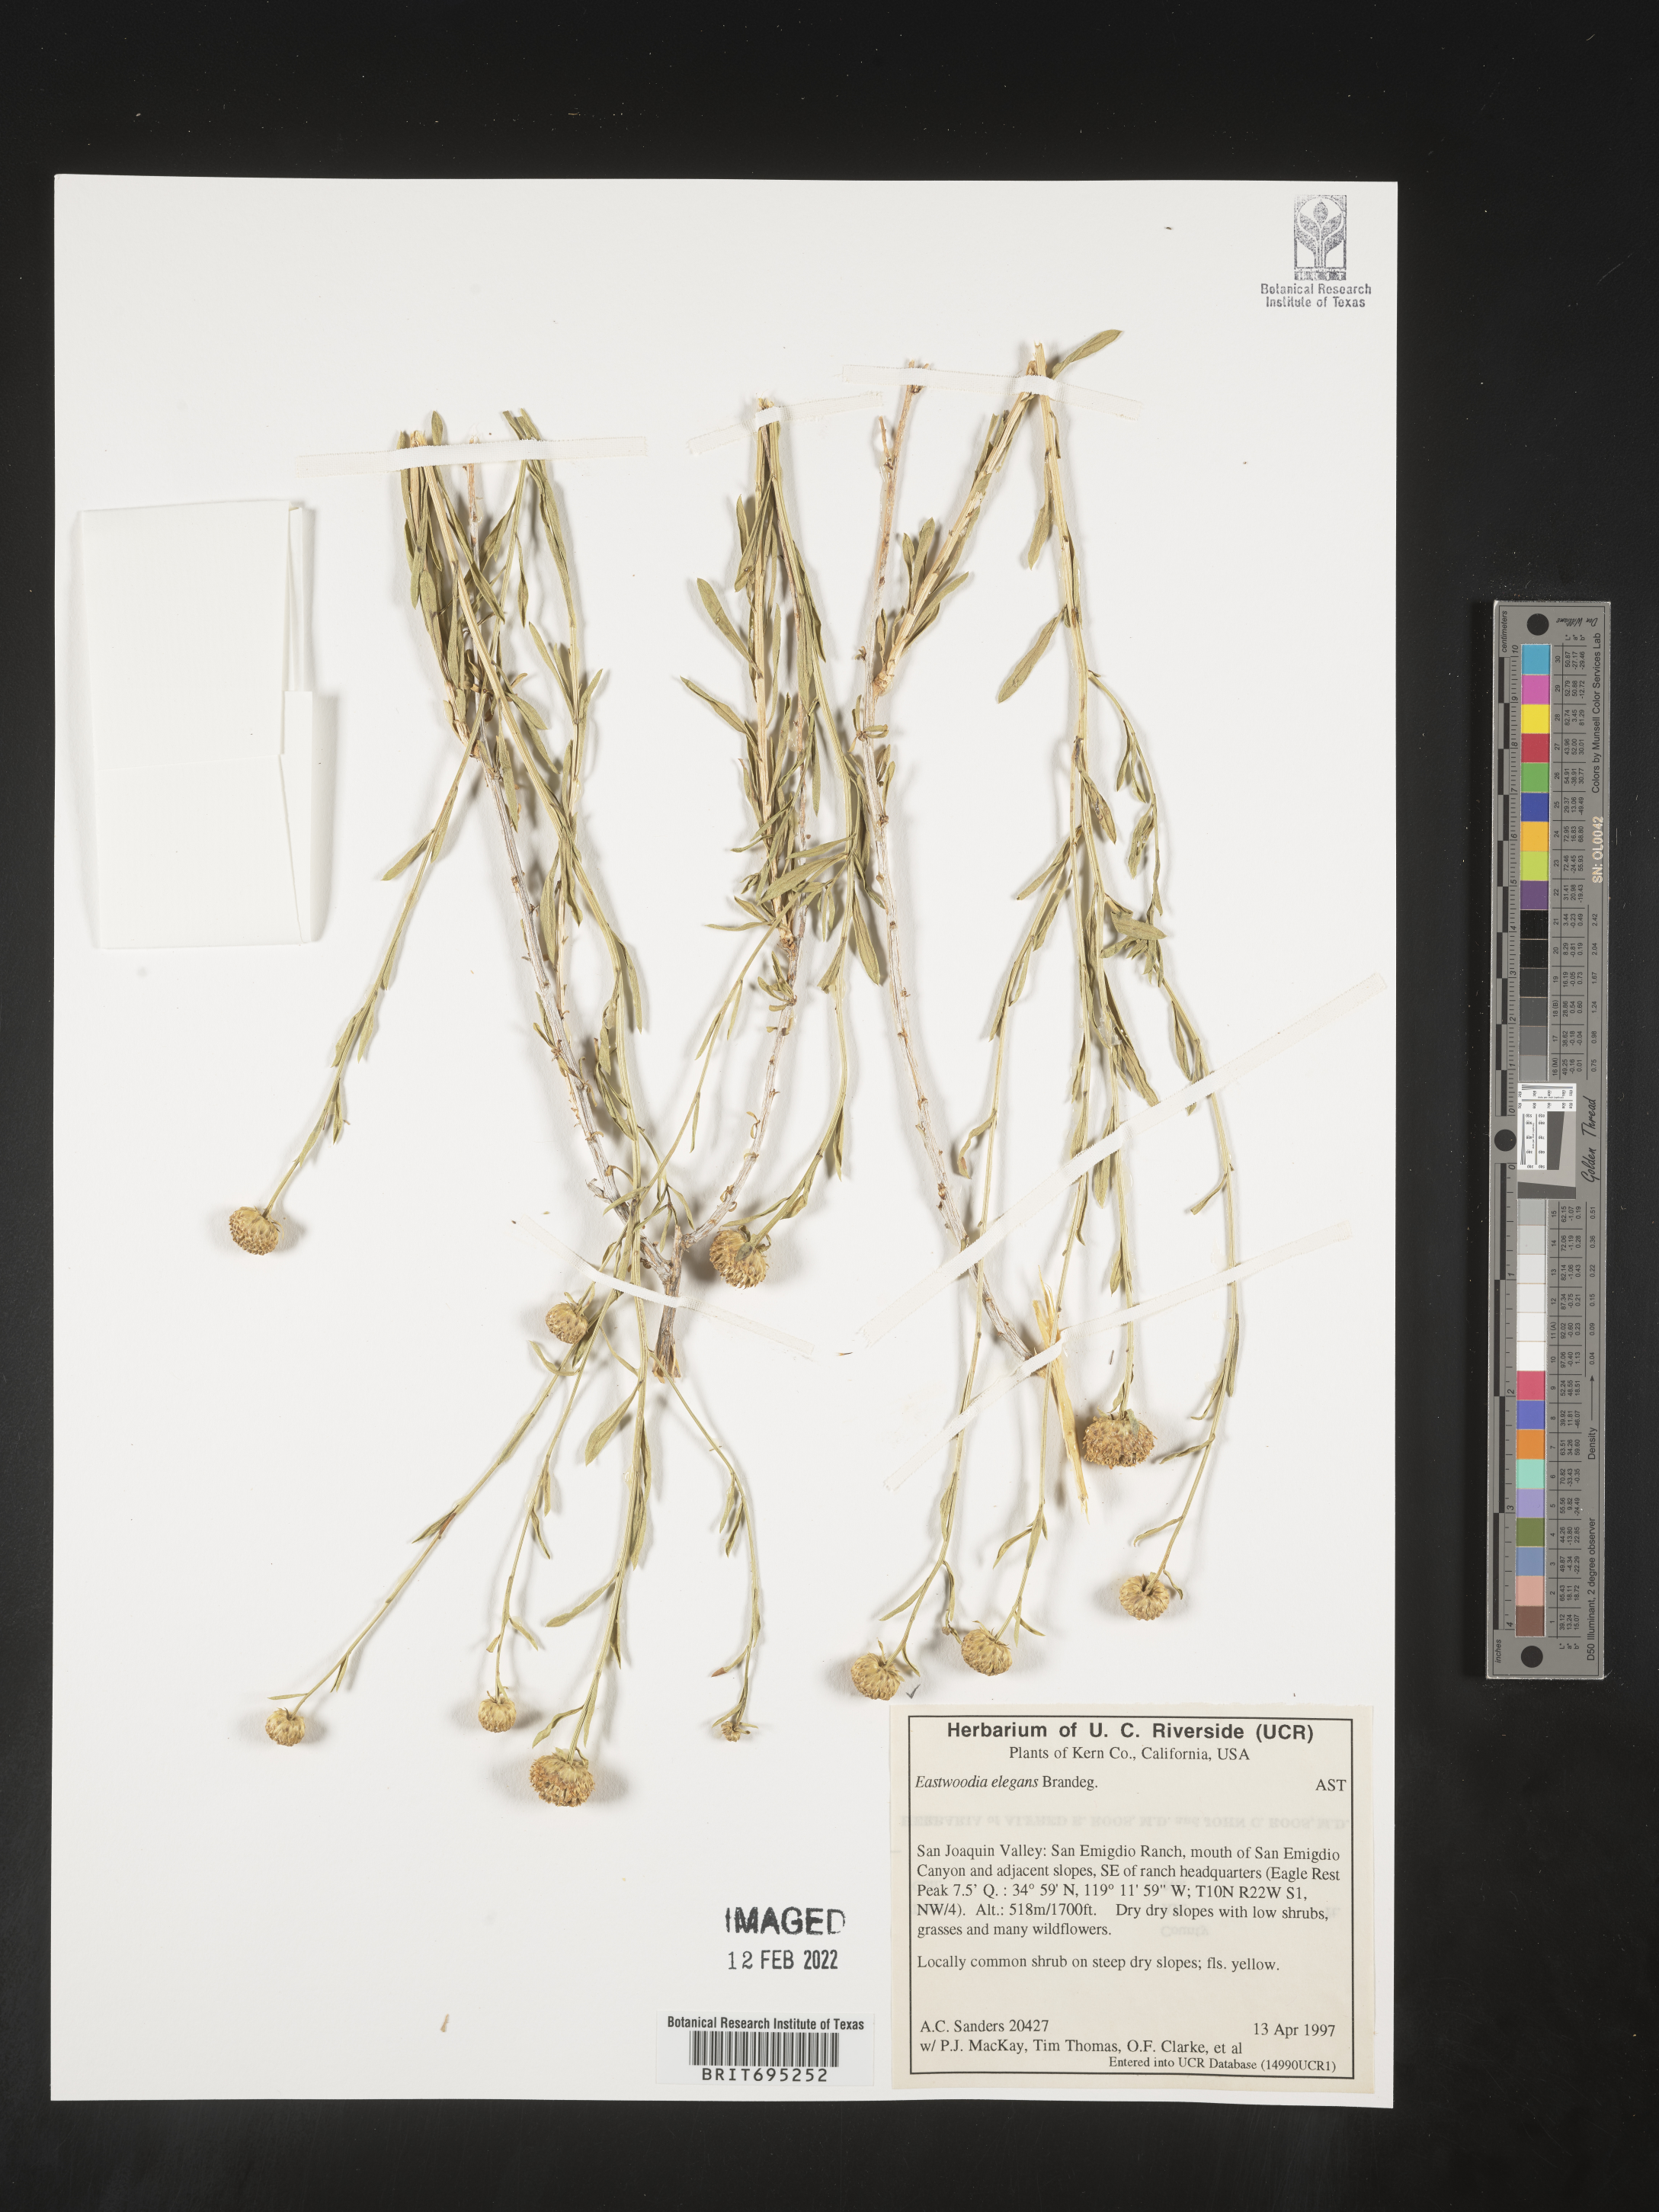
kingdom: Plantae
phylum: Tracheophyta
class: Magnoliopsida
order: Asterales
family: Asteraceae
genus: Eastwoodia
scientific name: Eastwoodia
